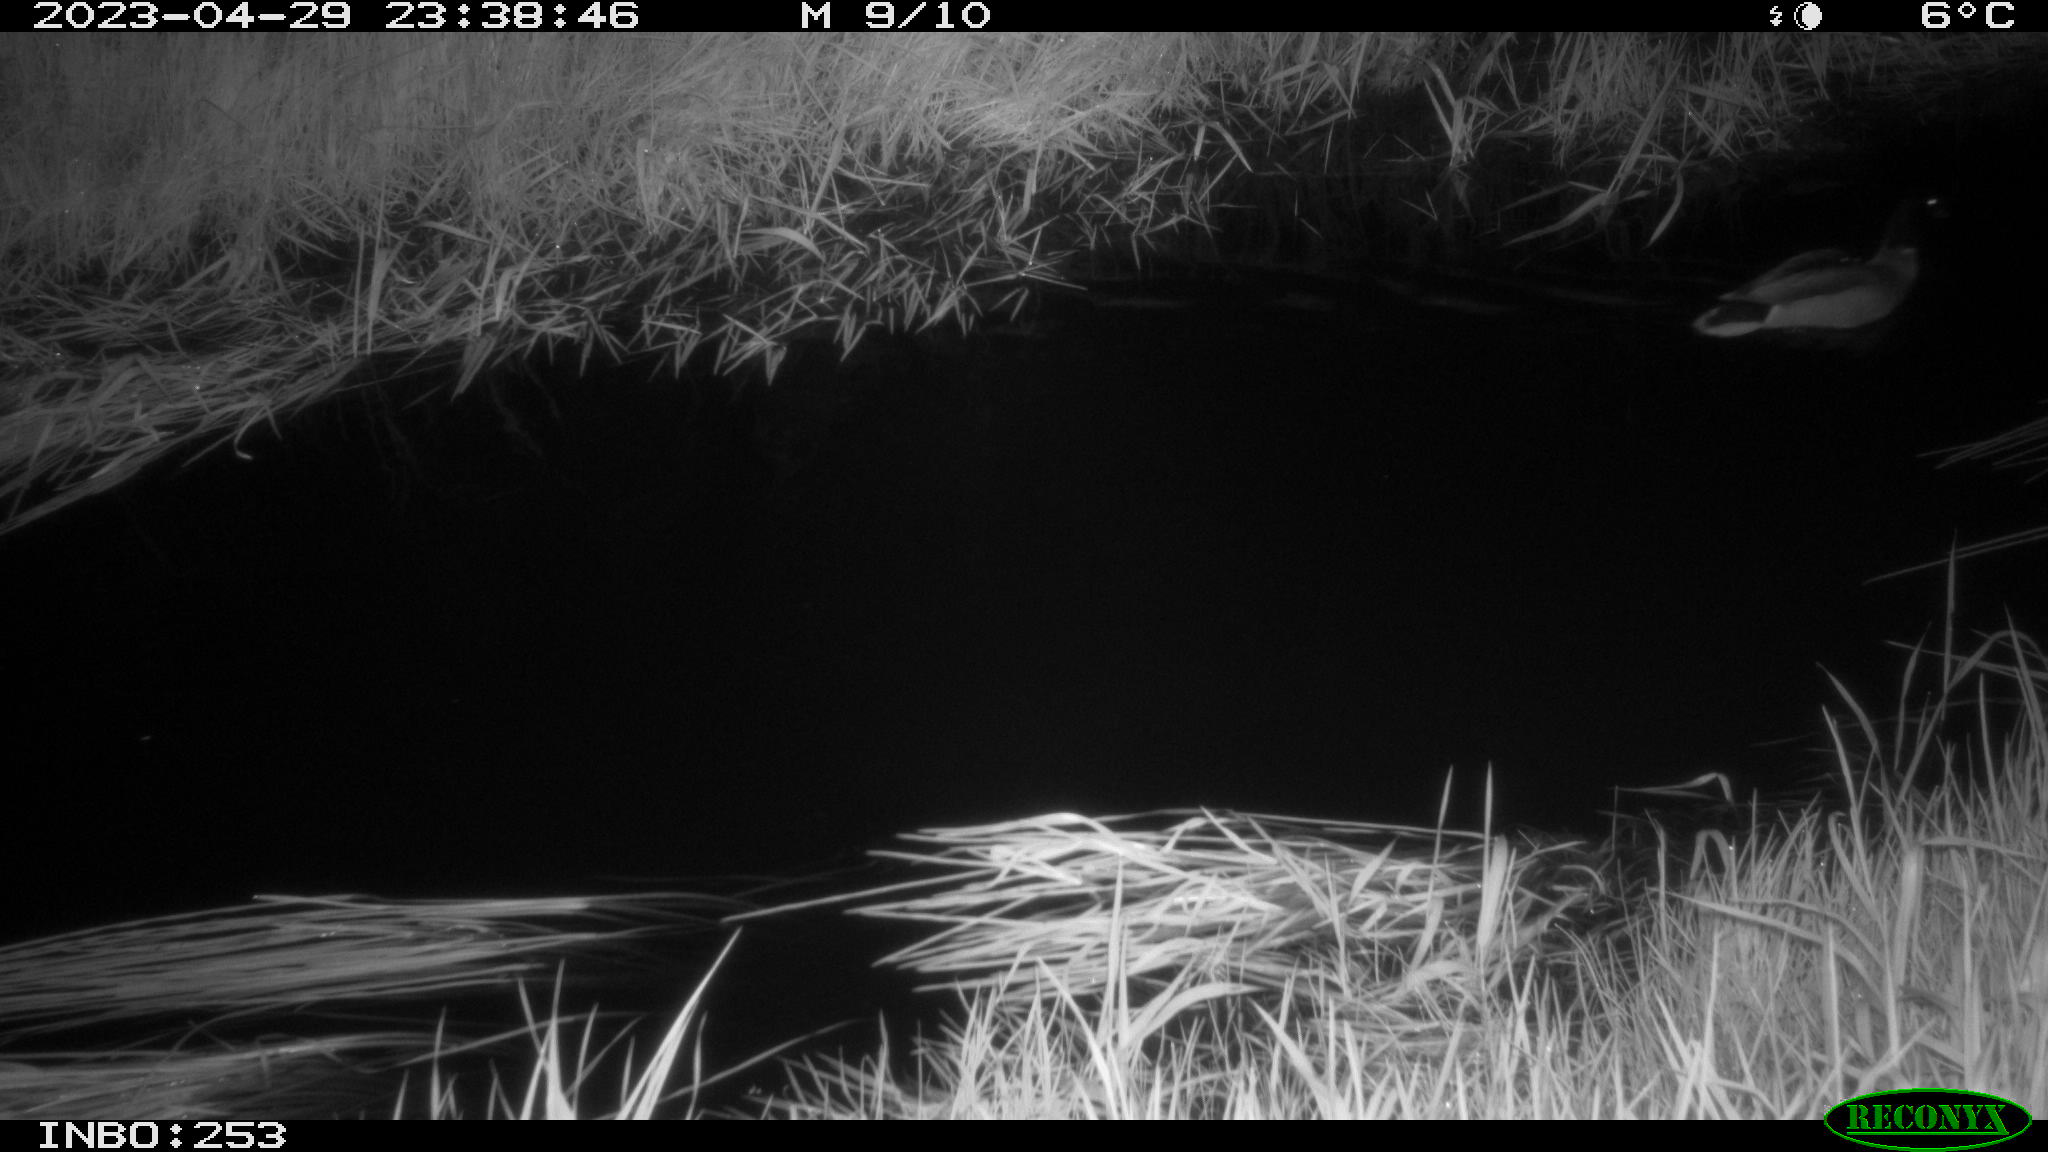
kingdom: Animalia
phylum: Chordata
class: Aves
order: Anseriformes
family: Anatidae
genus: Anas
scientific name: Anas
